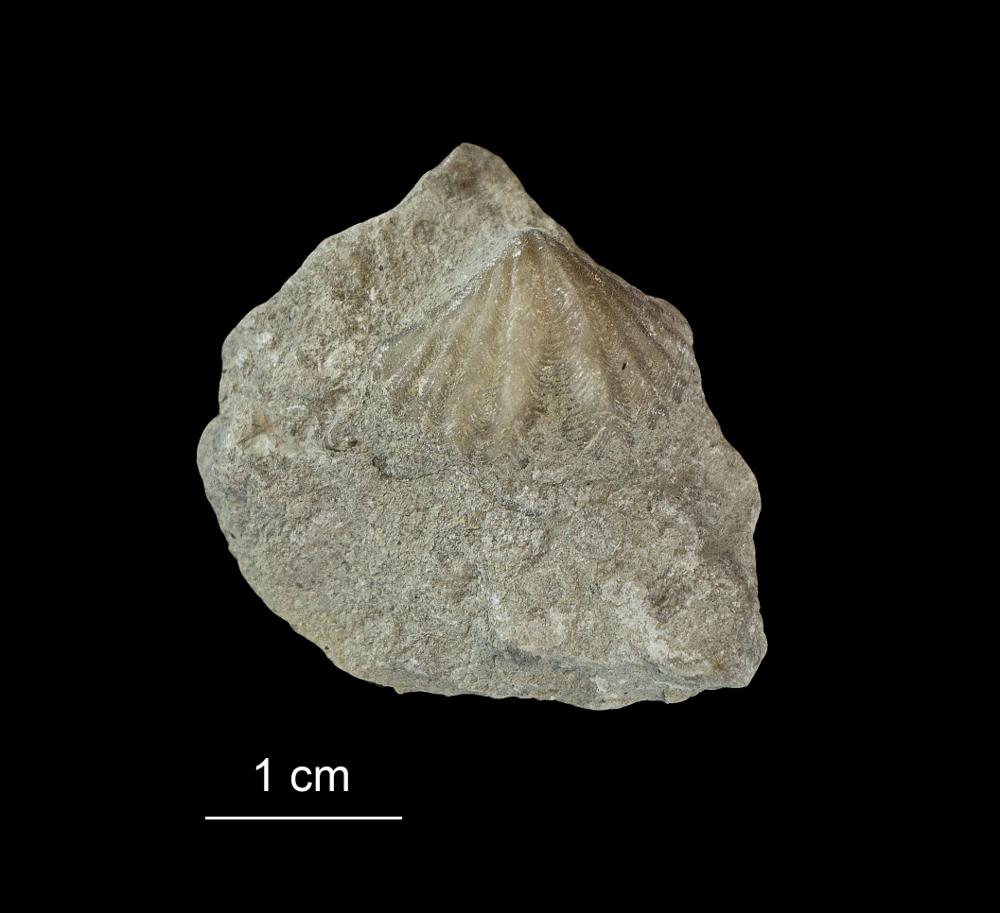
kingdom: Animalia
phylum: Brachiopoda
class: Rhynchonellata
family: Spiriferidae
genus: Spirifer
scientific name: Spirifer
